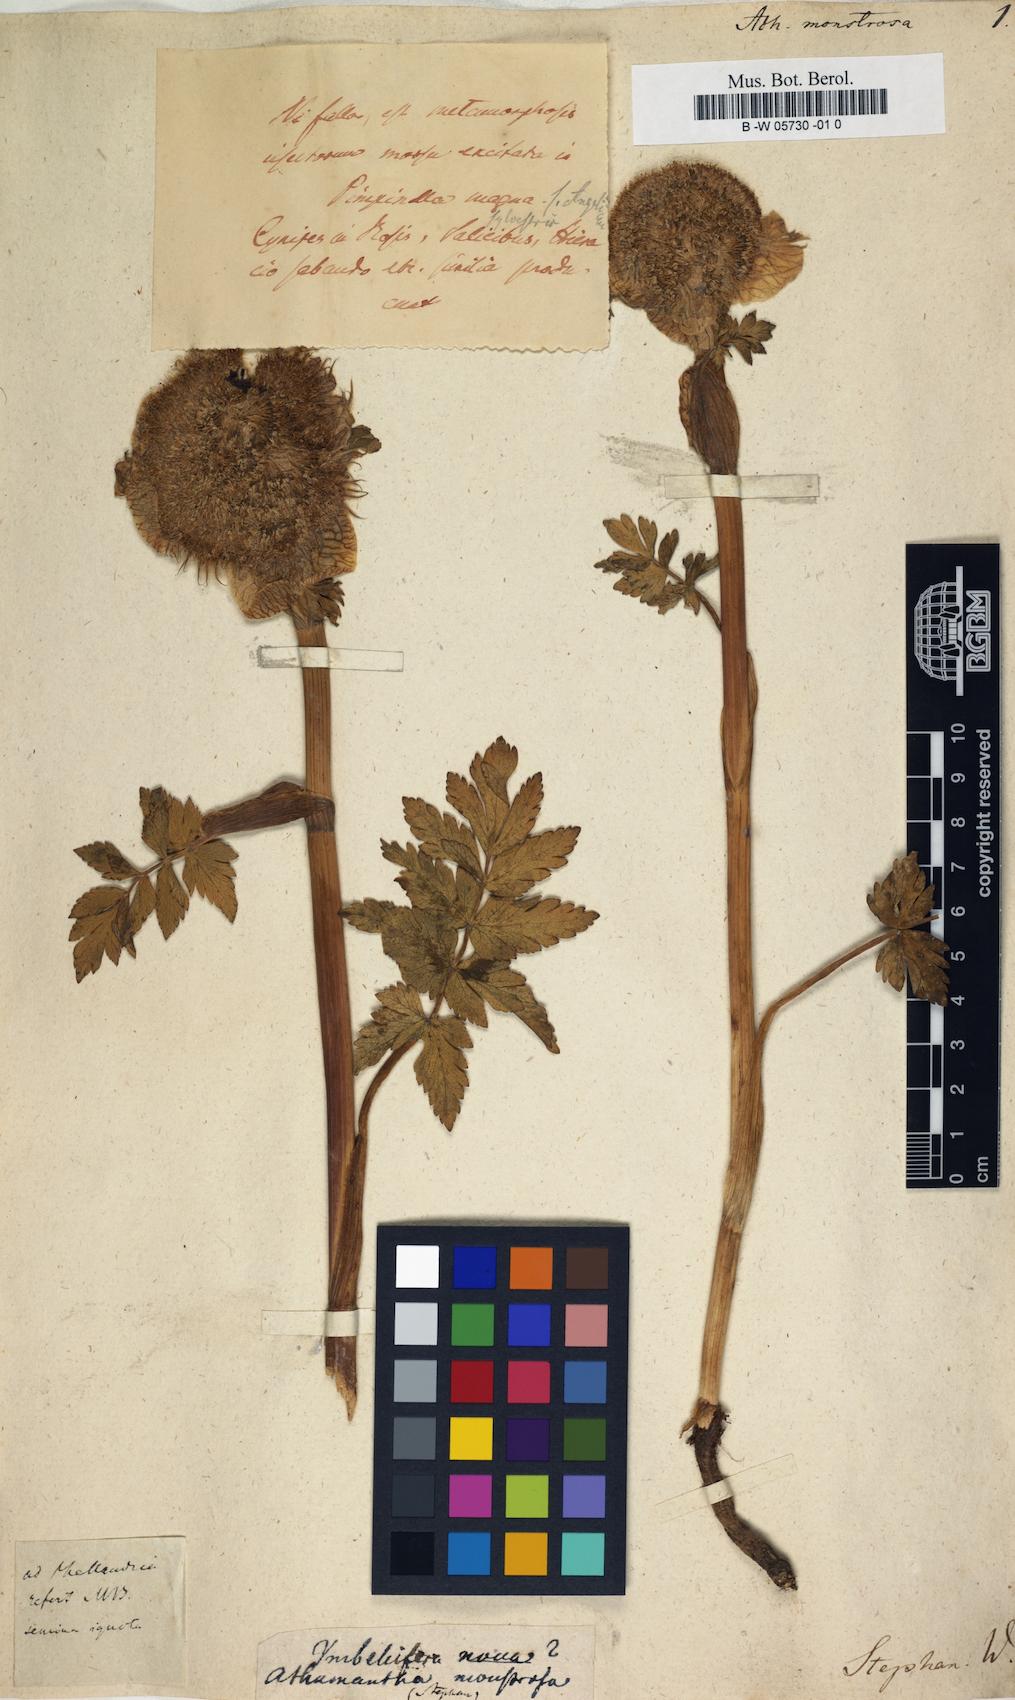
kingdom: Plantae
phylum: Tracheophyta
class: Magnoliopsida
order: Apiales
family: Apiaceae
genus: Sajanella
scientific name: Sajanella monstrosa
